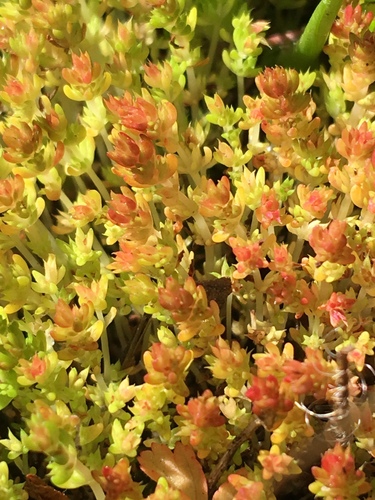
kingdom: Plantae
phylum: Tracheophyta
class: Magnoliopsida
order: Saxifragales
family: Crassulaceae
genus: Crassula
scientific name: Crassula tillaea
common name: Mossy stonecrop
